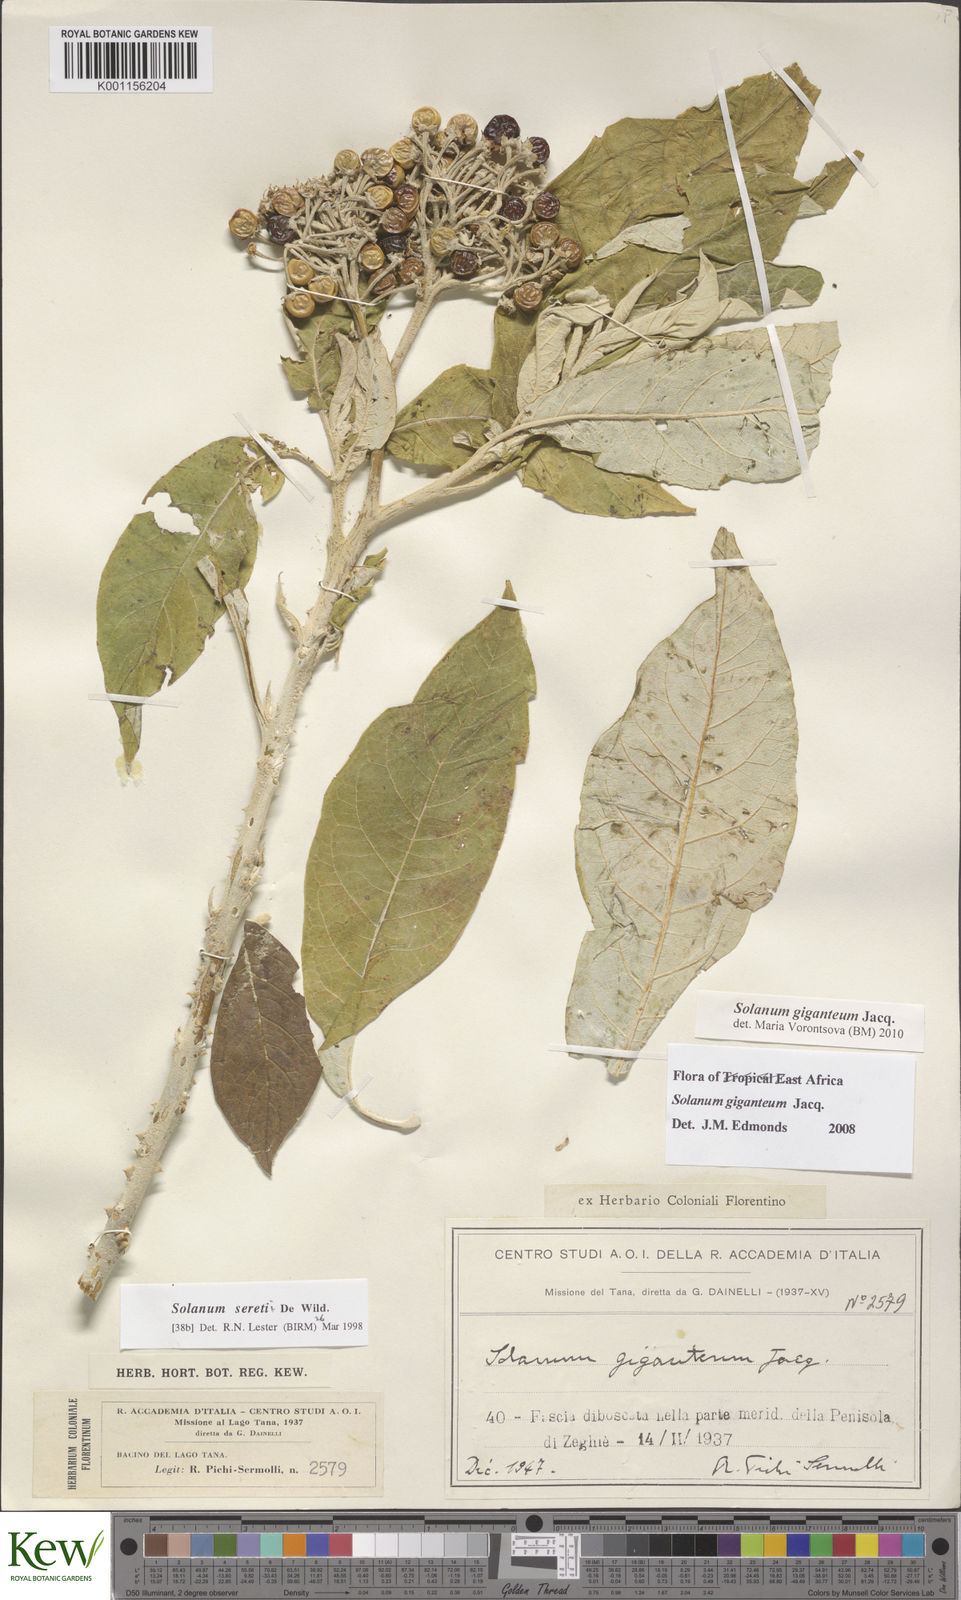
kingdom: Plantae
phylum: Tracheophyta
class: Magnoliopsida
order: Solanales
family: Solanaceae
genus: Solanum
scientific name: Solanum giganteum
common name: Healing-leaf-tree
